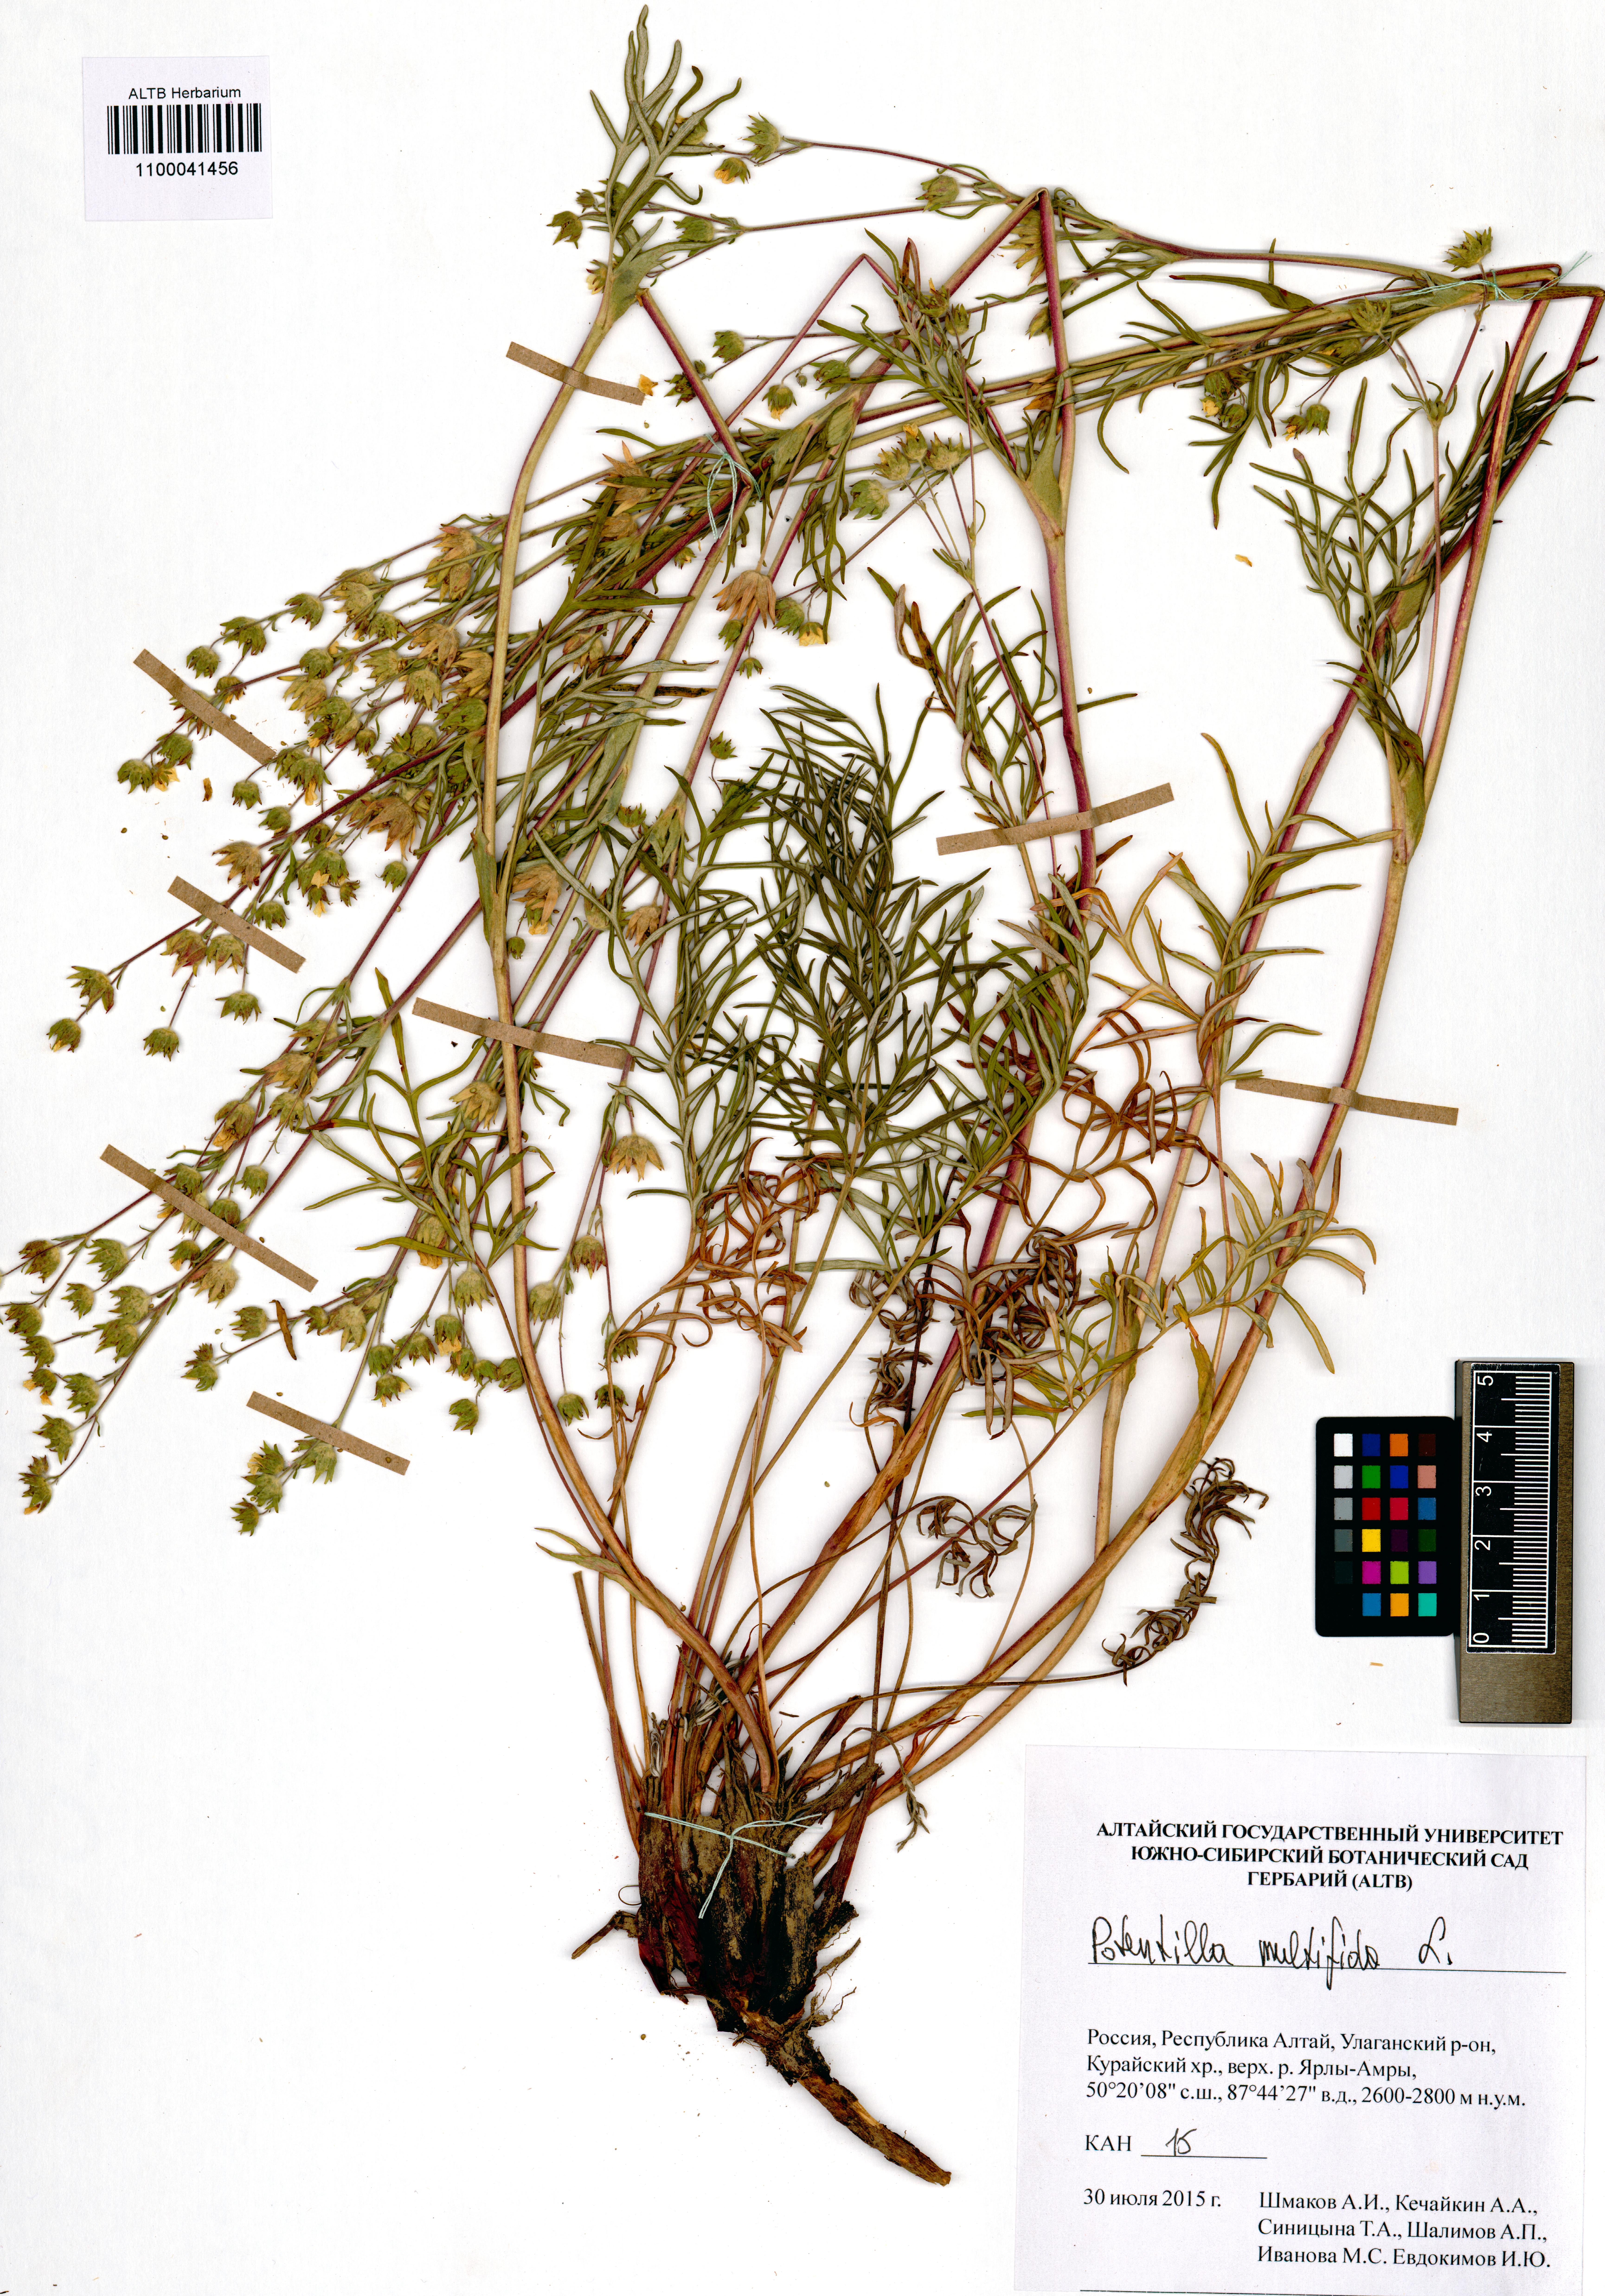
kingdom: Plantae
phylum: Tracheophyta
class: Magnoliopsida
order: Rosales
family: Rosaceae
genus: Potentilla
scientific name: Potentilla multifida
